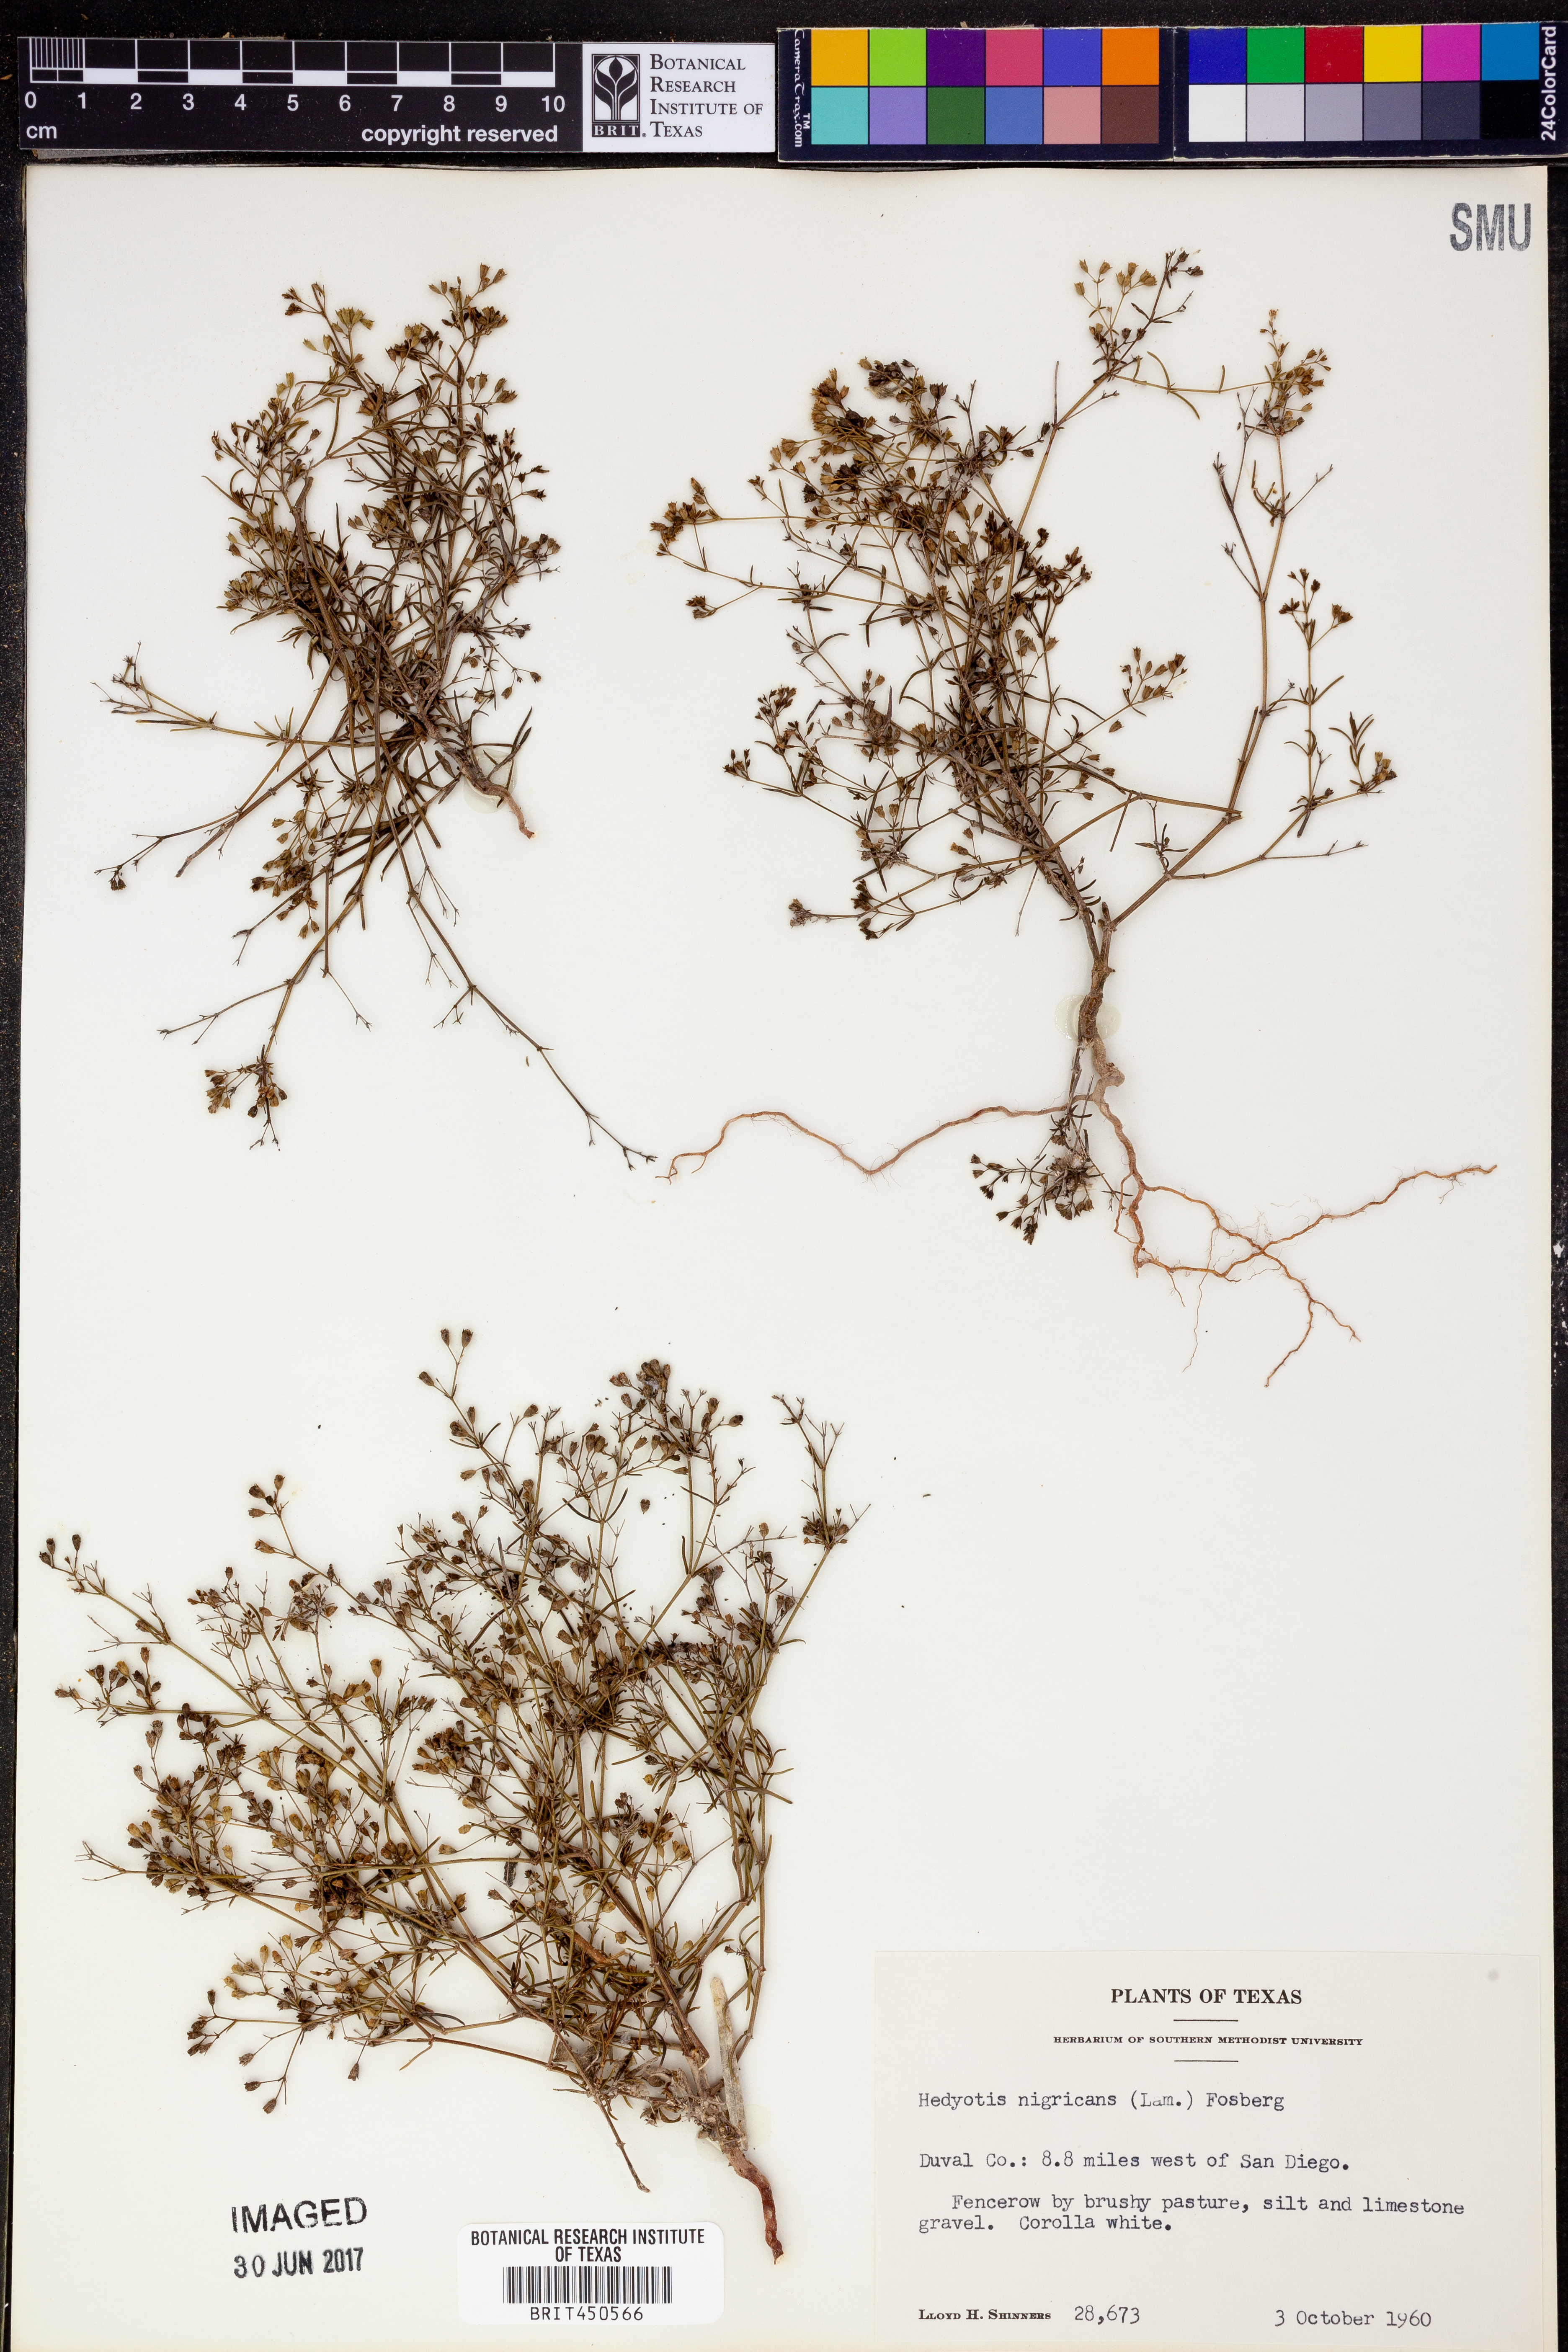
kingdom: Plantae
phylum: Tracheophyta
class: Magnoliopsida
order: Gentianales
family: Rubiaceae
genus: Stenaria
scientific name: Stenaria nigricans
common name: Diamondflowers
